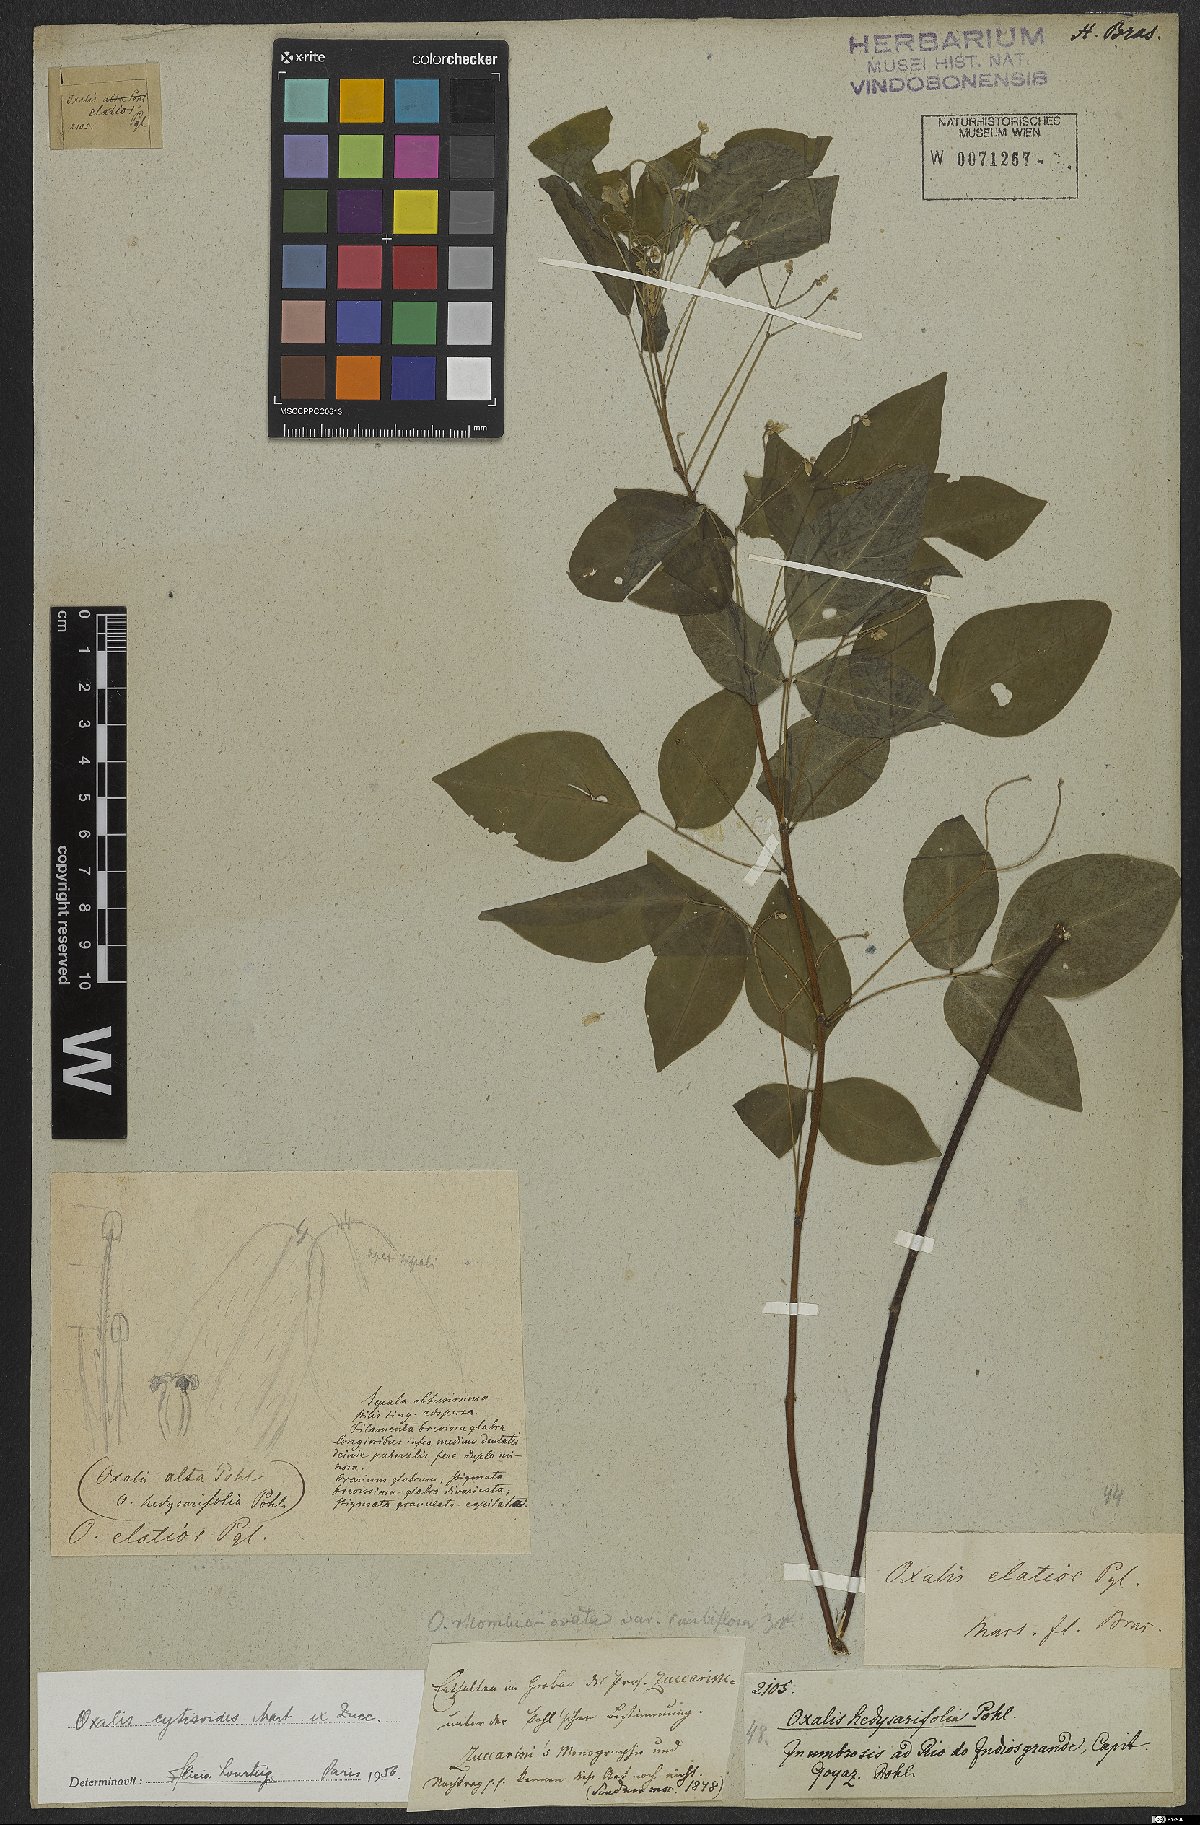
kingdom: Plantae
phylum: Tracheophyta
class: Magnoliopsida
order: Oxalidales
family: Oxalidaceae
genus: Oxalis
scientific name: Oxalis cytisoides
